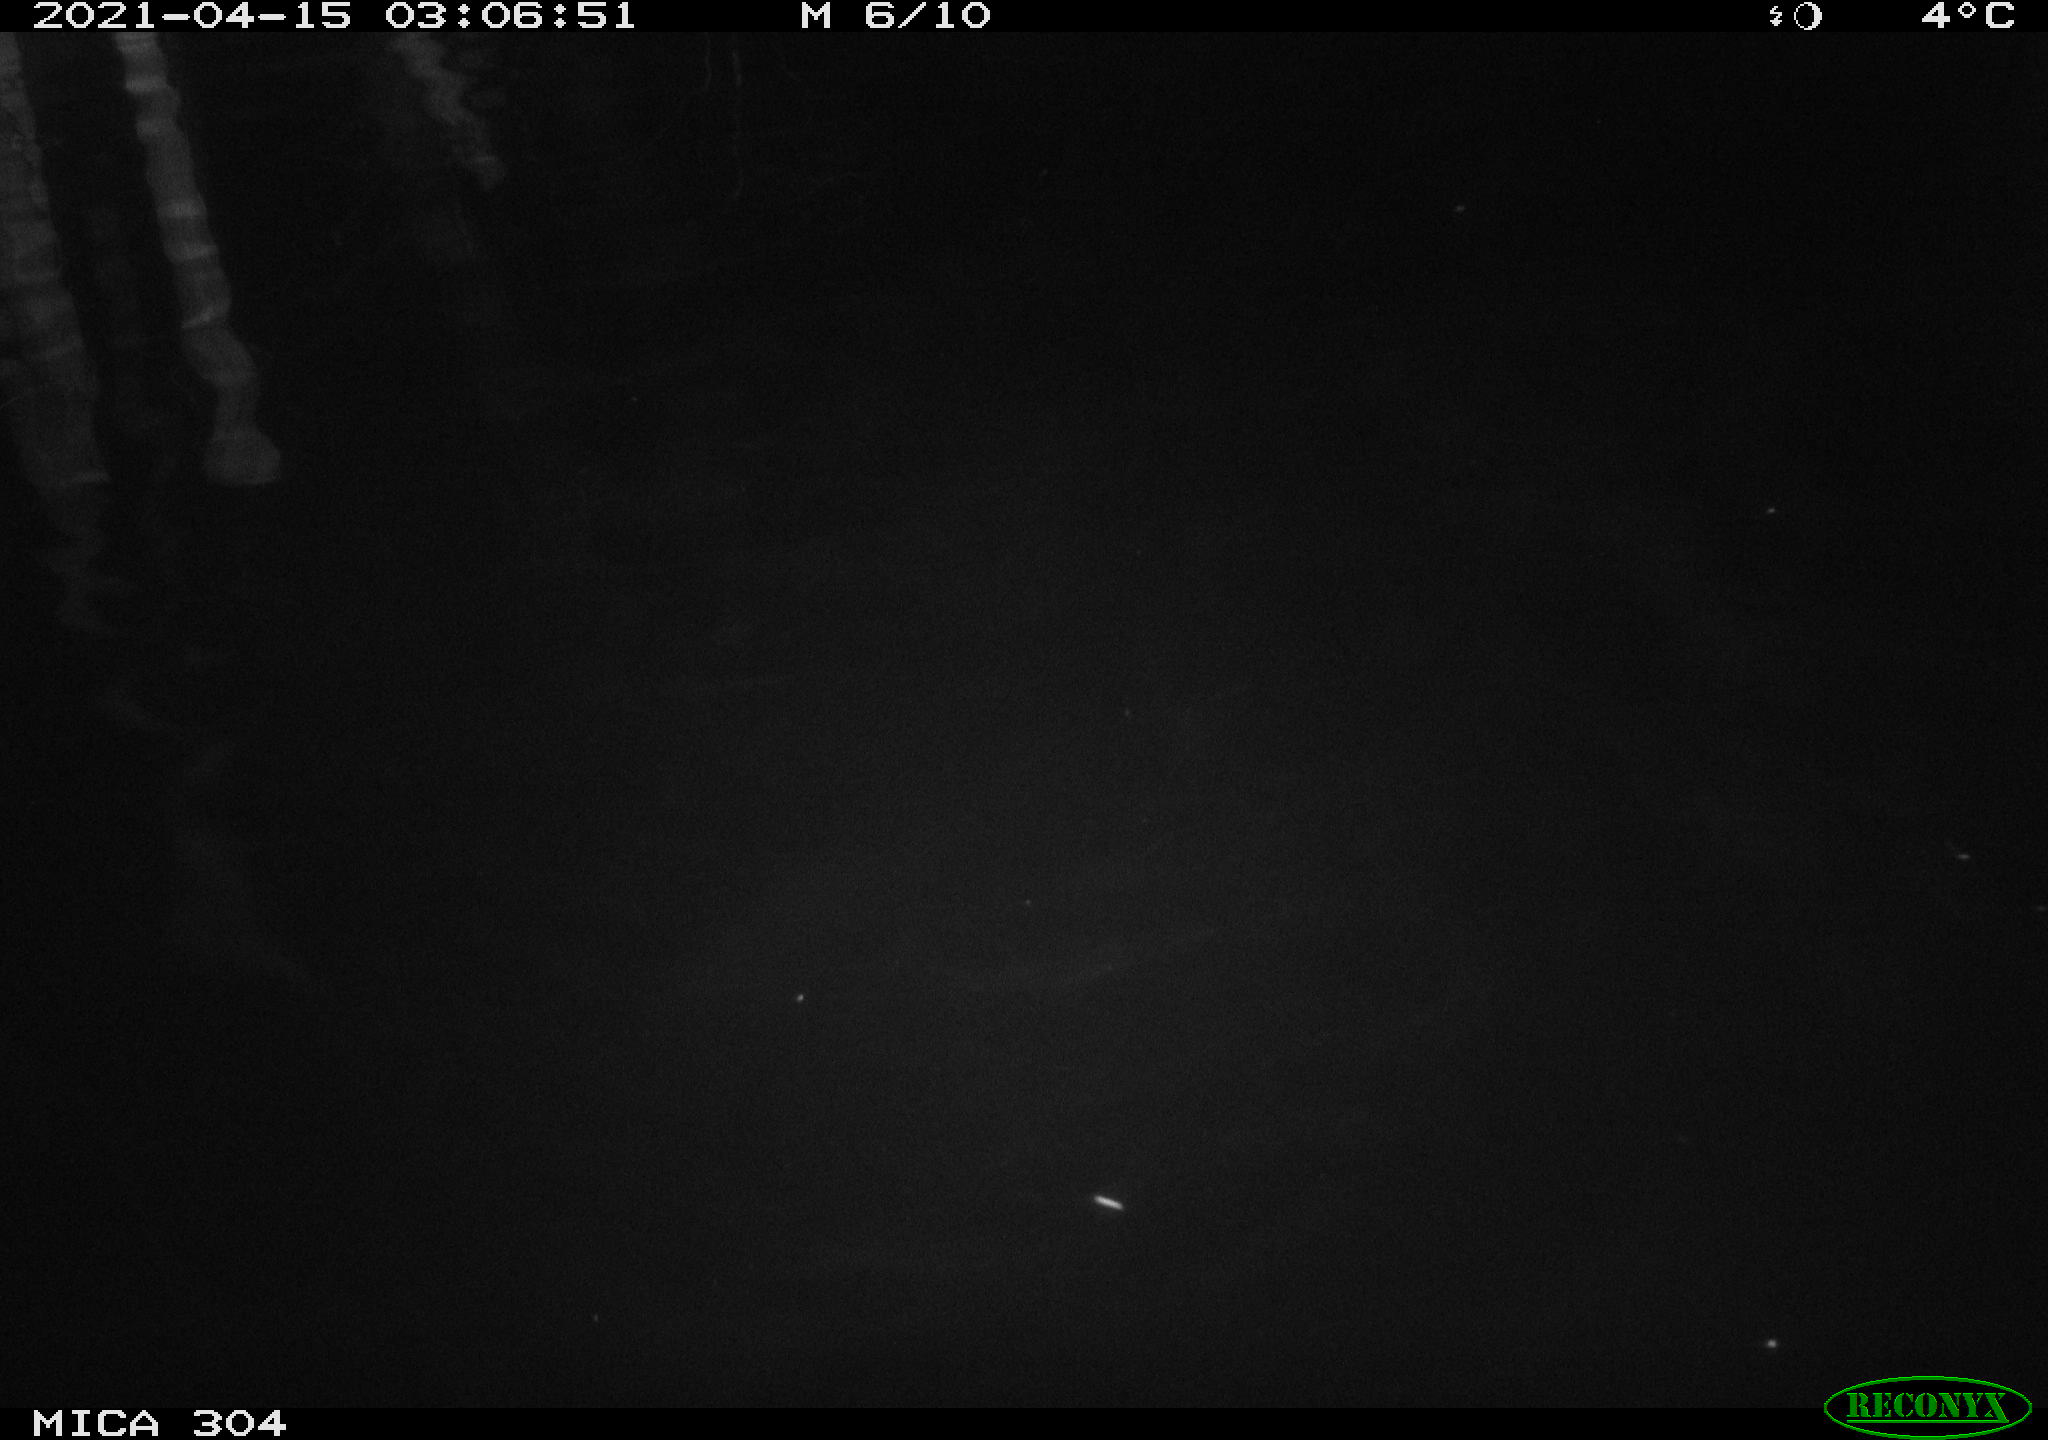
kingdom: Animalia
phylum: Chordata
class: Aves
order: Anseriformes
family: Anatidae
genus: Anas
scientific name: Anas
